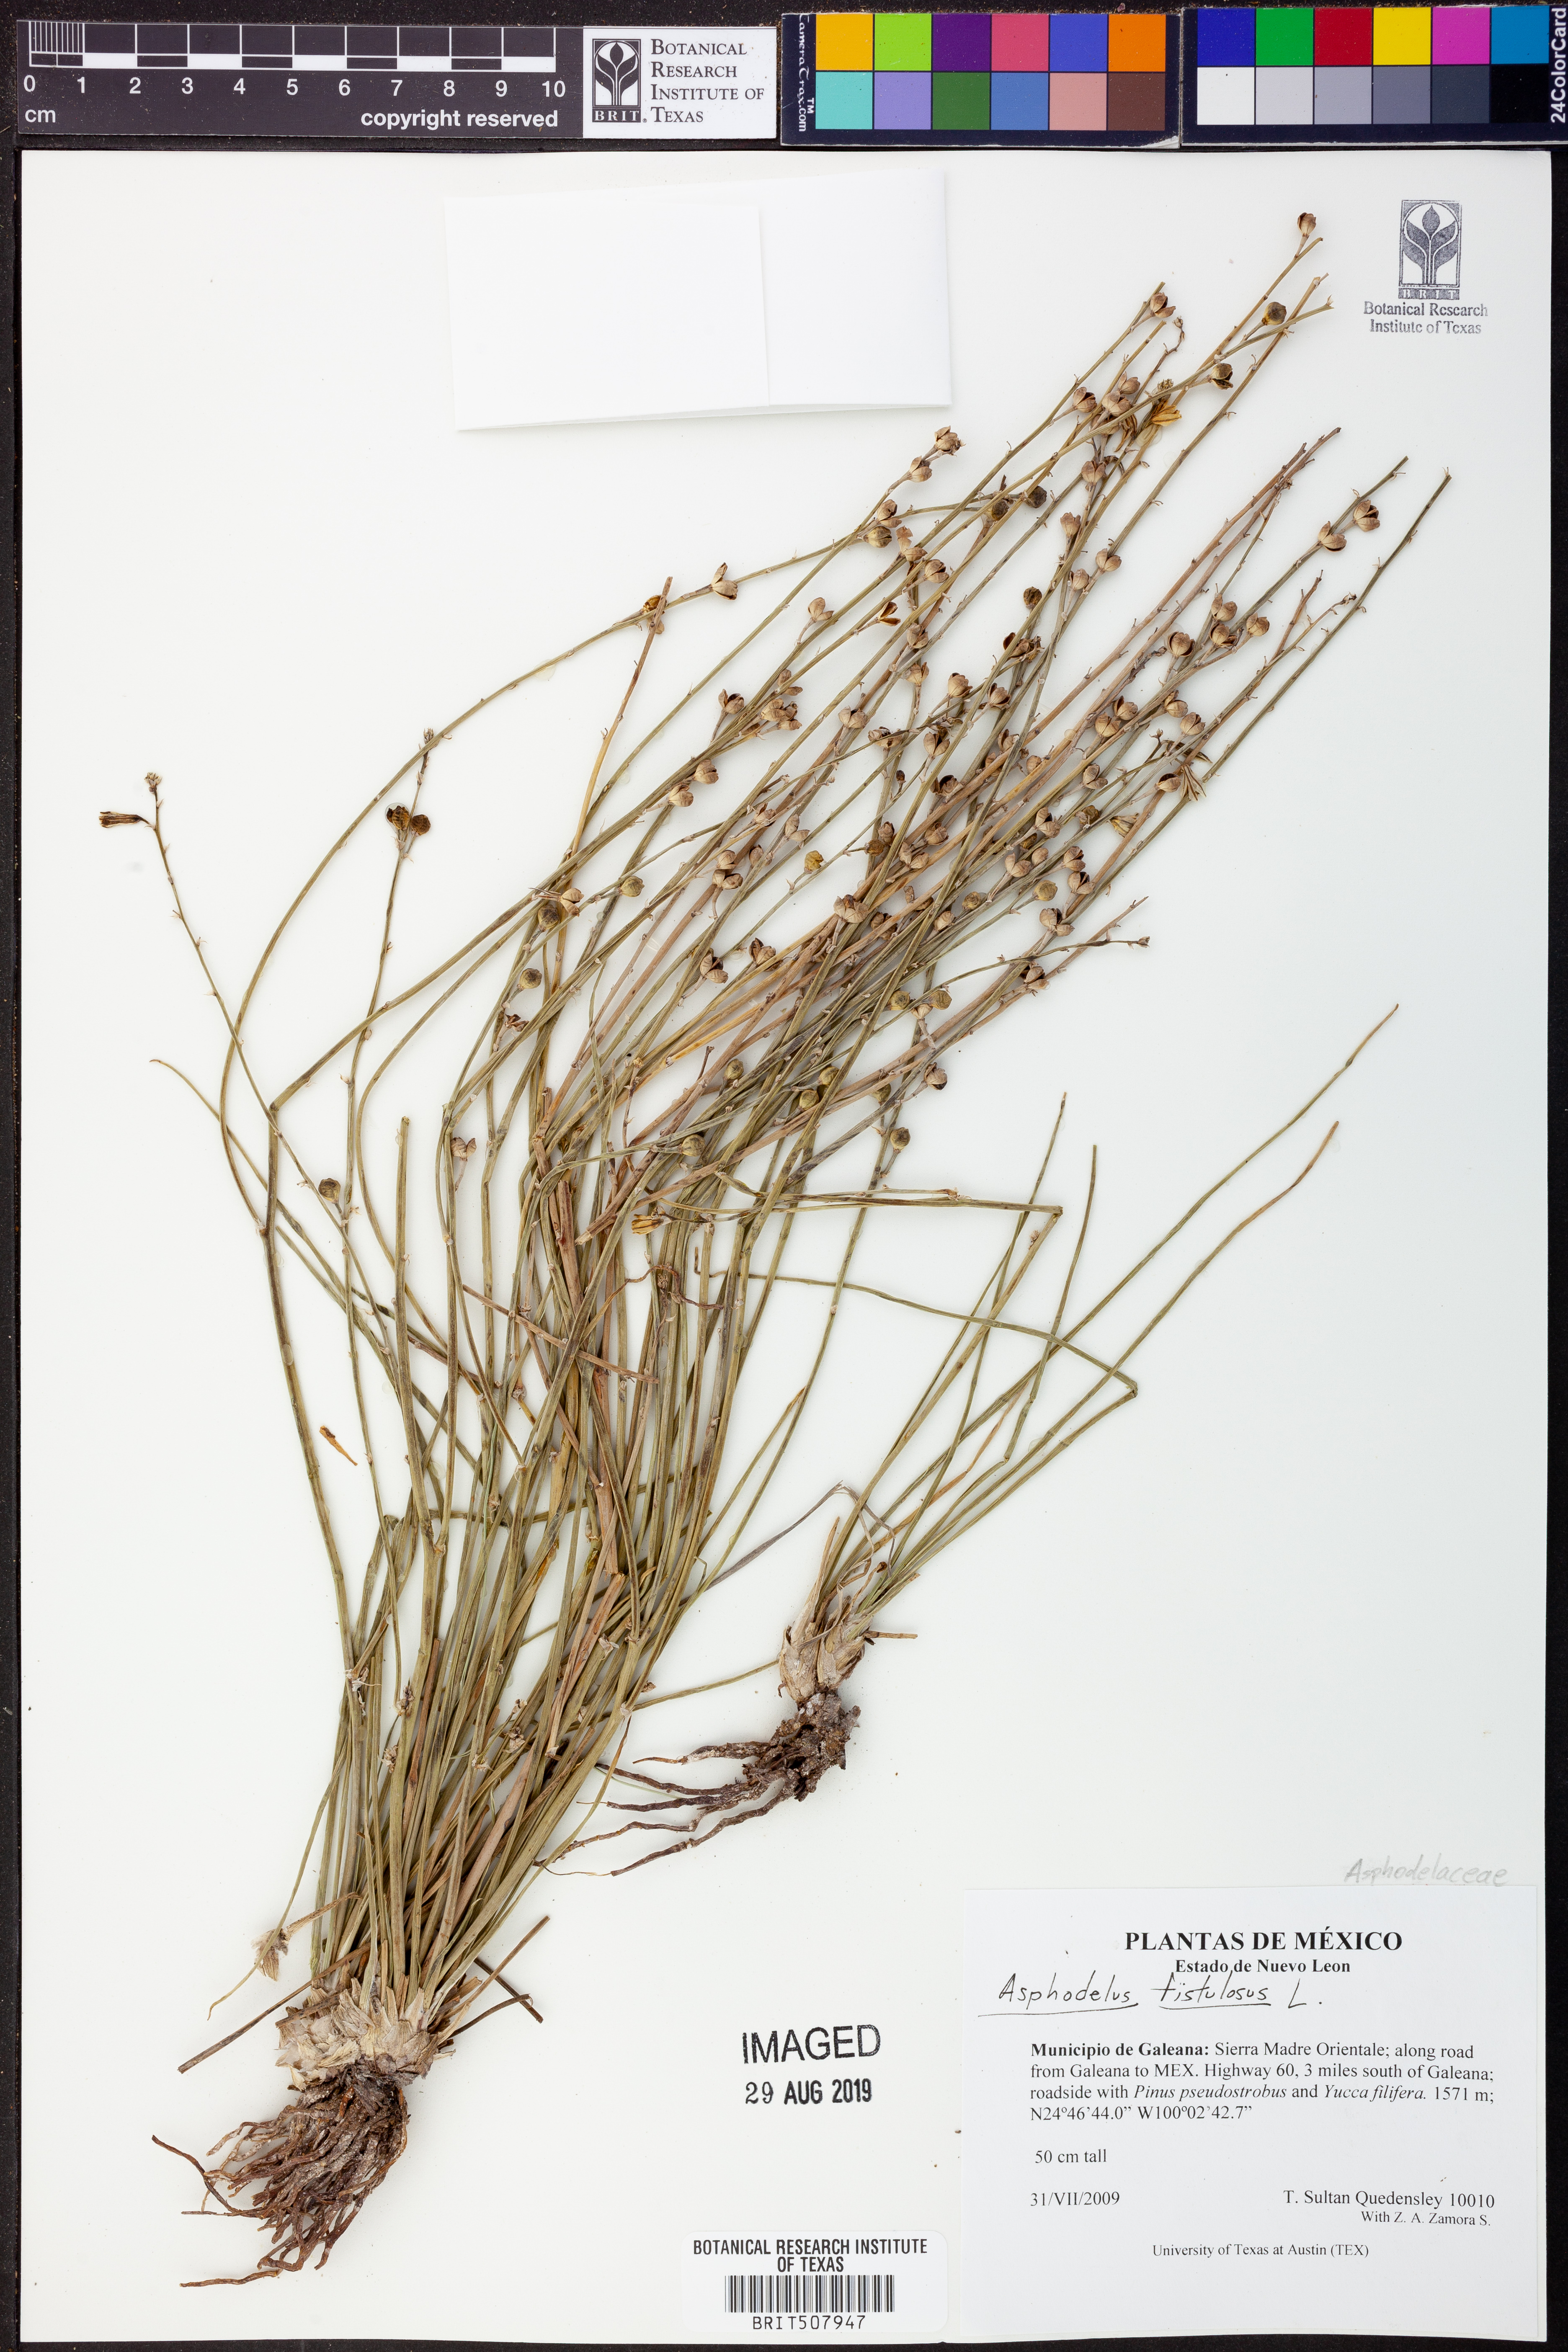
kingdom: Plantae
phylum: Tracheophyta
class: Liliopsida
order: Asparagales
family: Asphodelaceae
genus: Asphodelus
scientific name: Asphodelus fistulosus
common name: Onionweed
